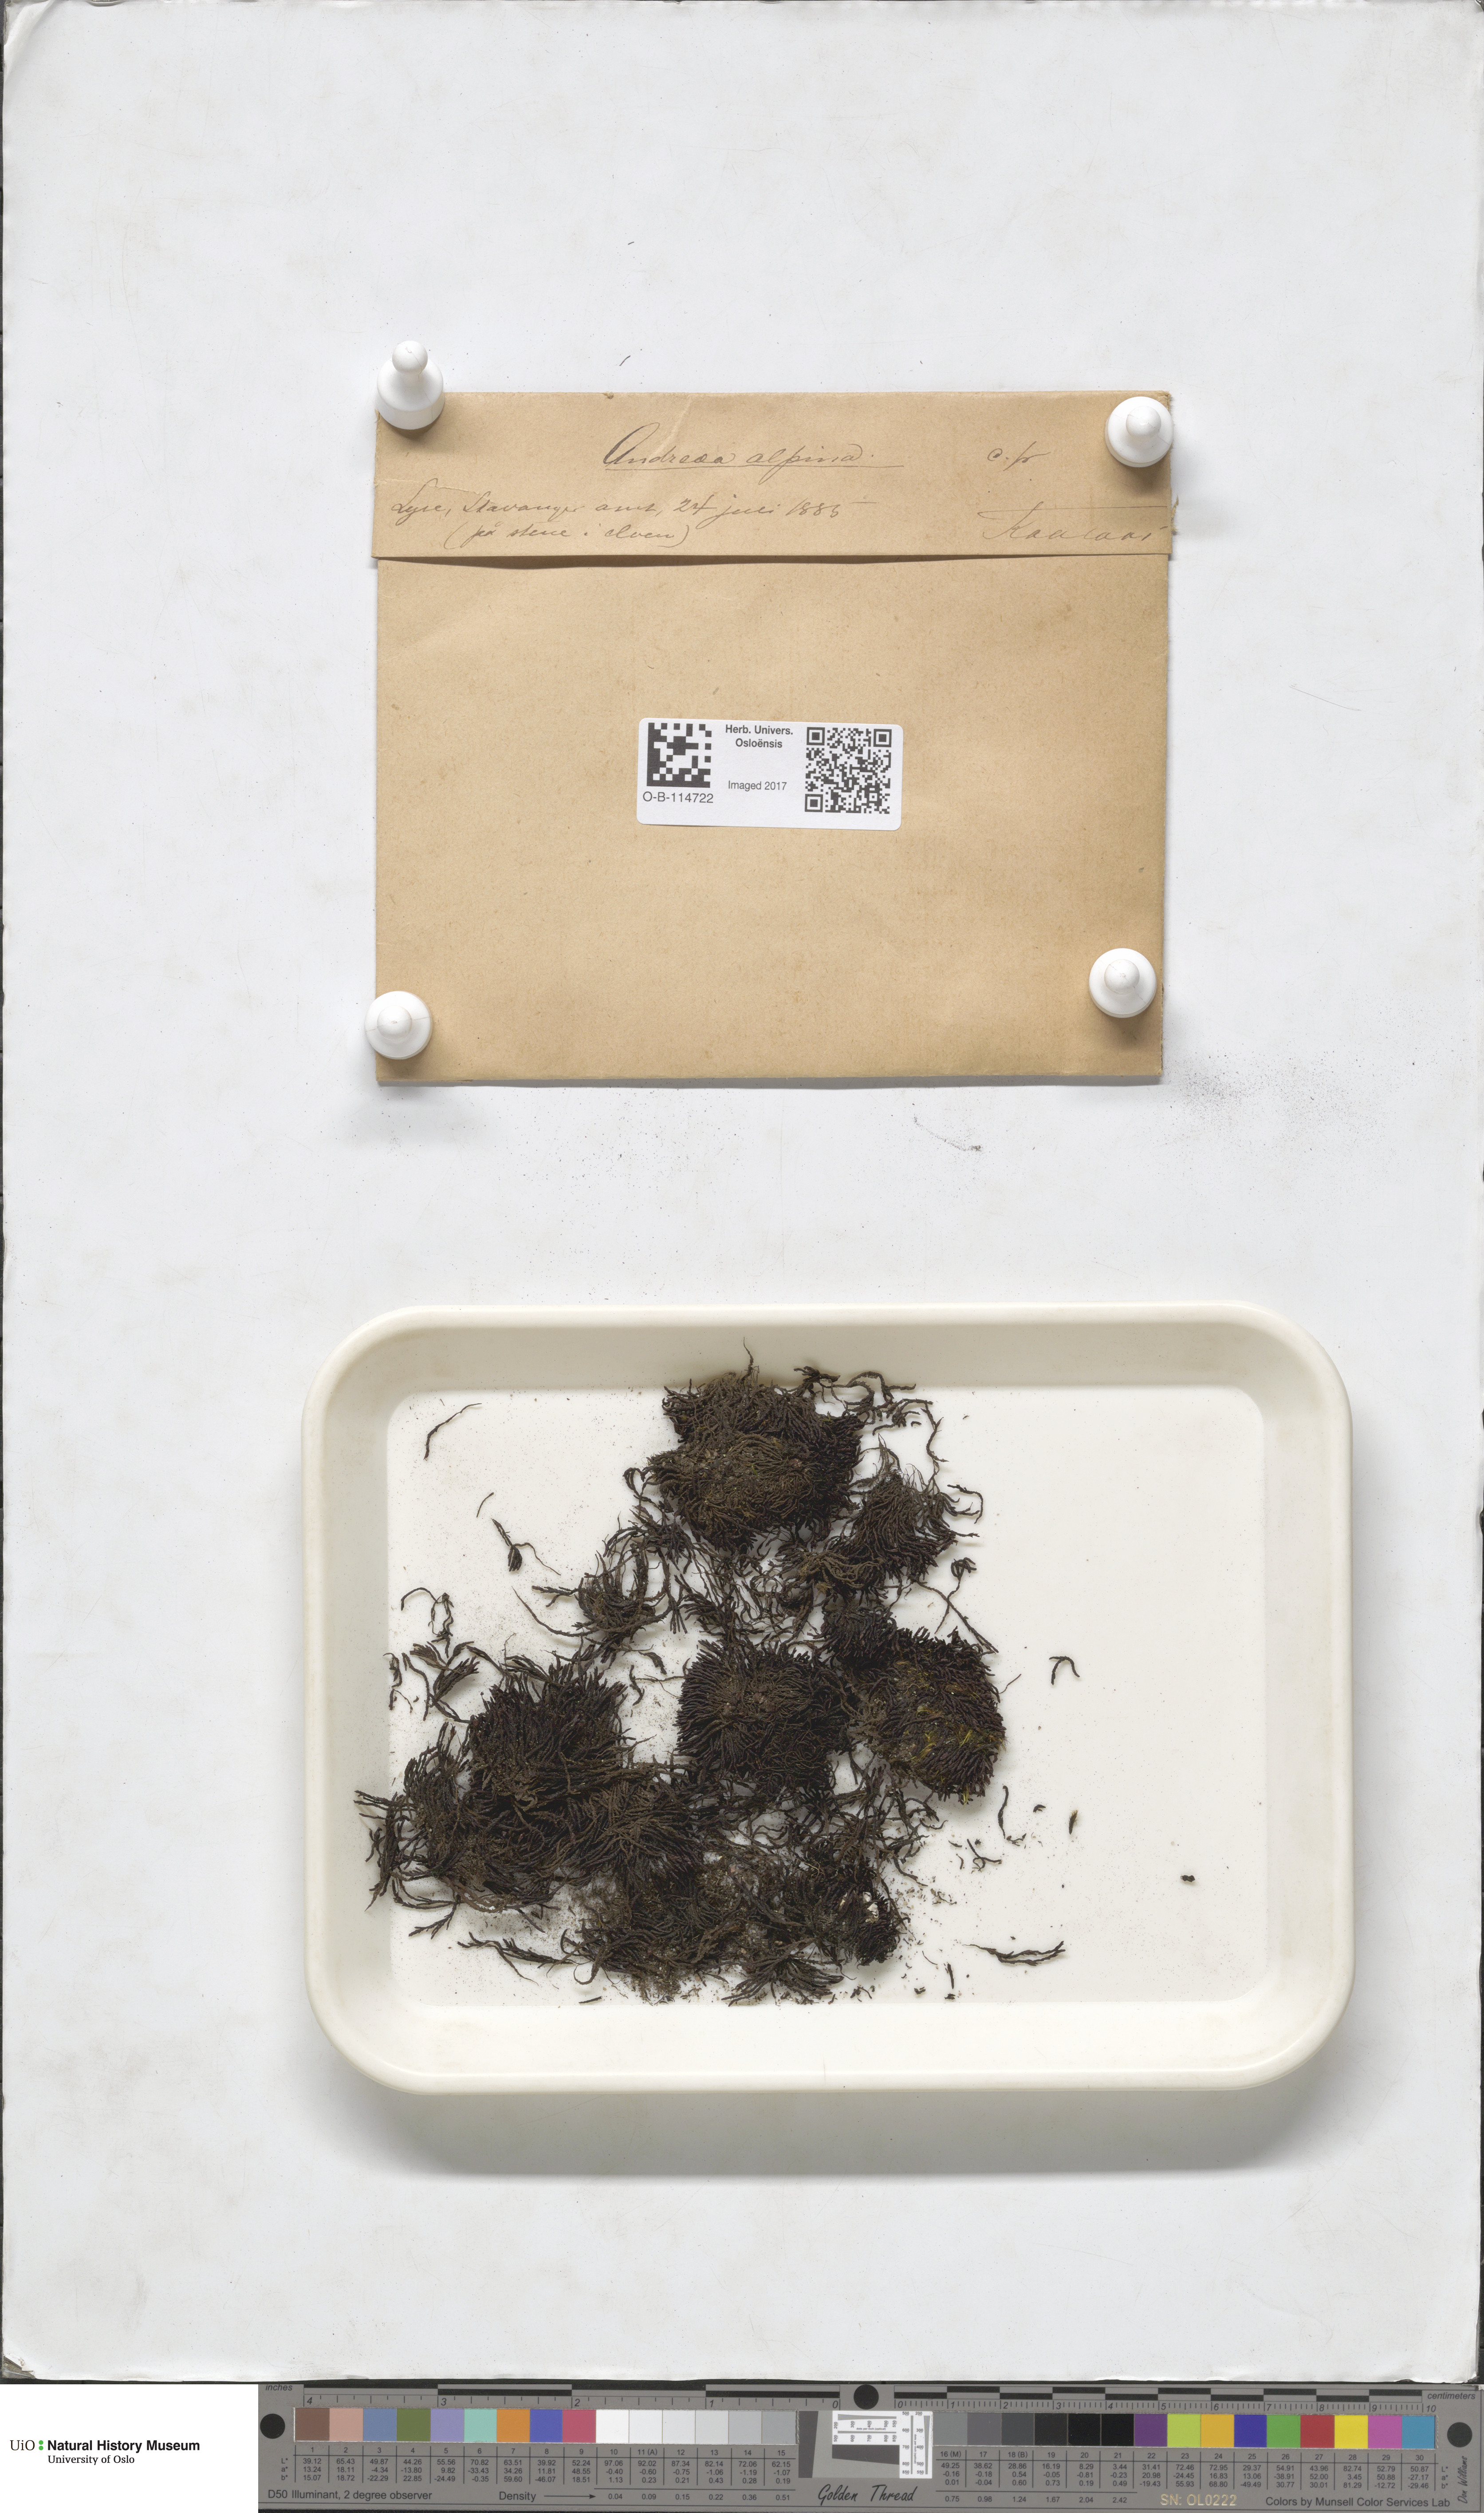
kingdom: Plantae
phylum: Bryophyta
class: Andreaeopsida
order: Andreaeales
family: Andreaeaceae
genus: Andreaea
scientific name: Andreaea hookeri
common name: Alpine rock-moss
